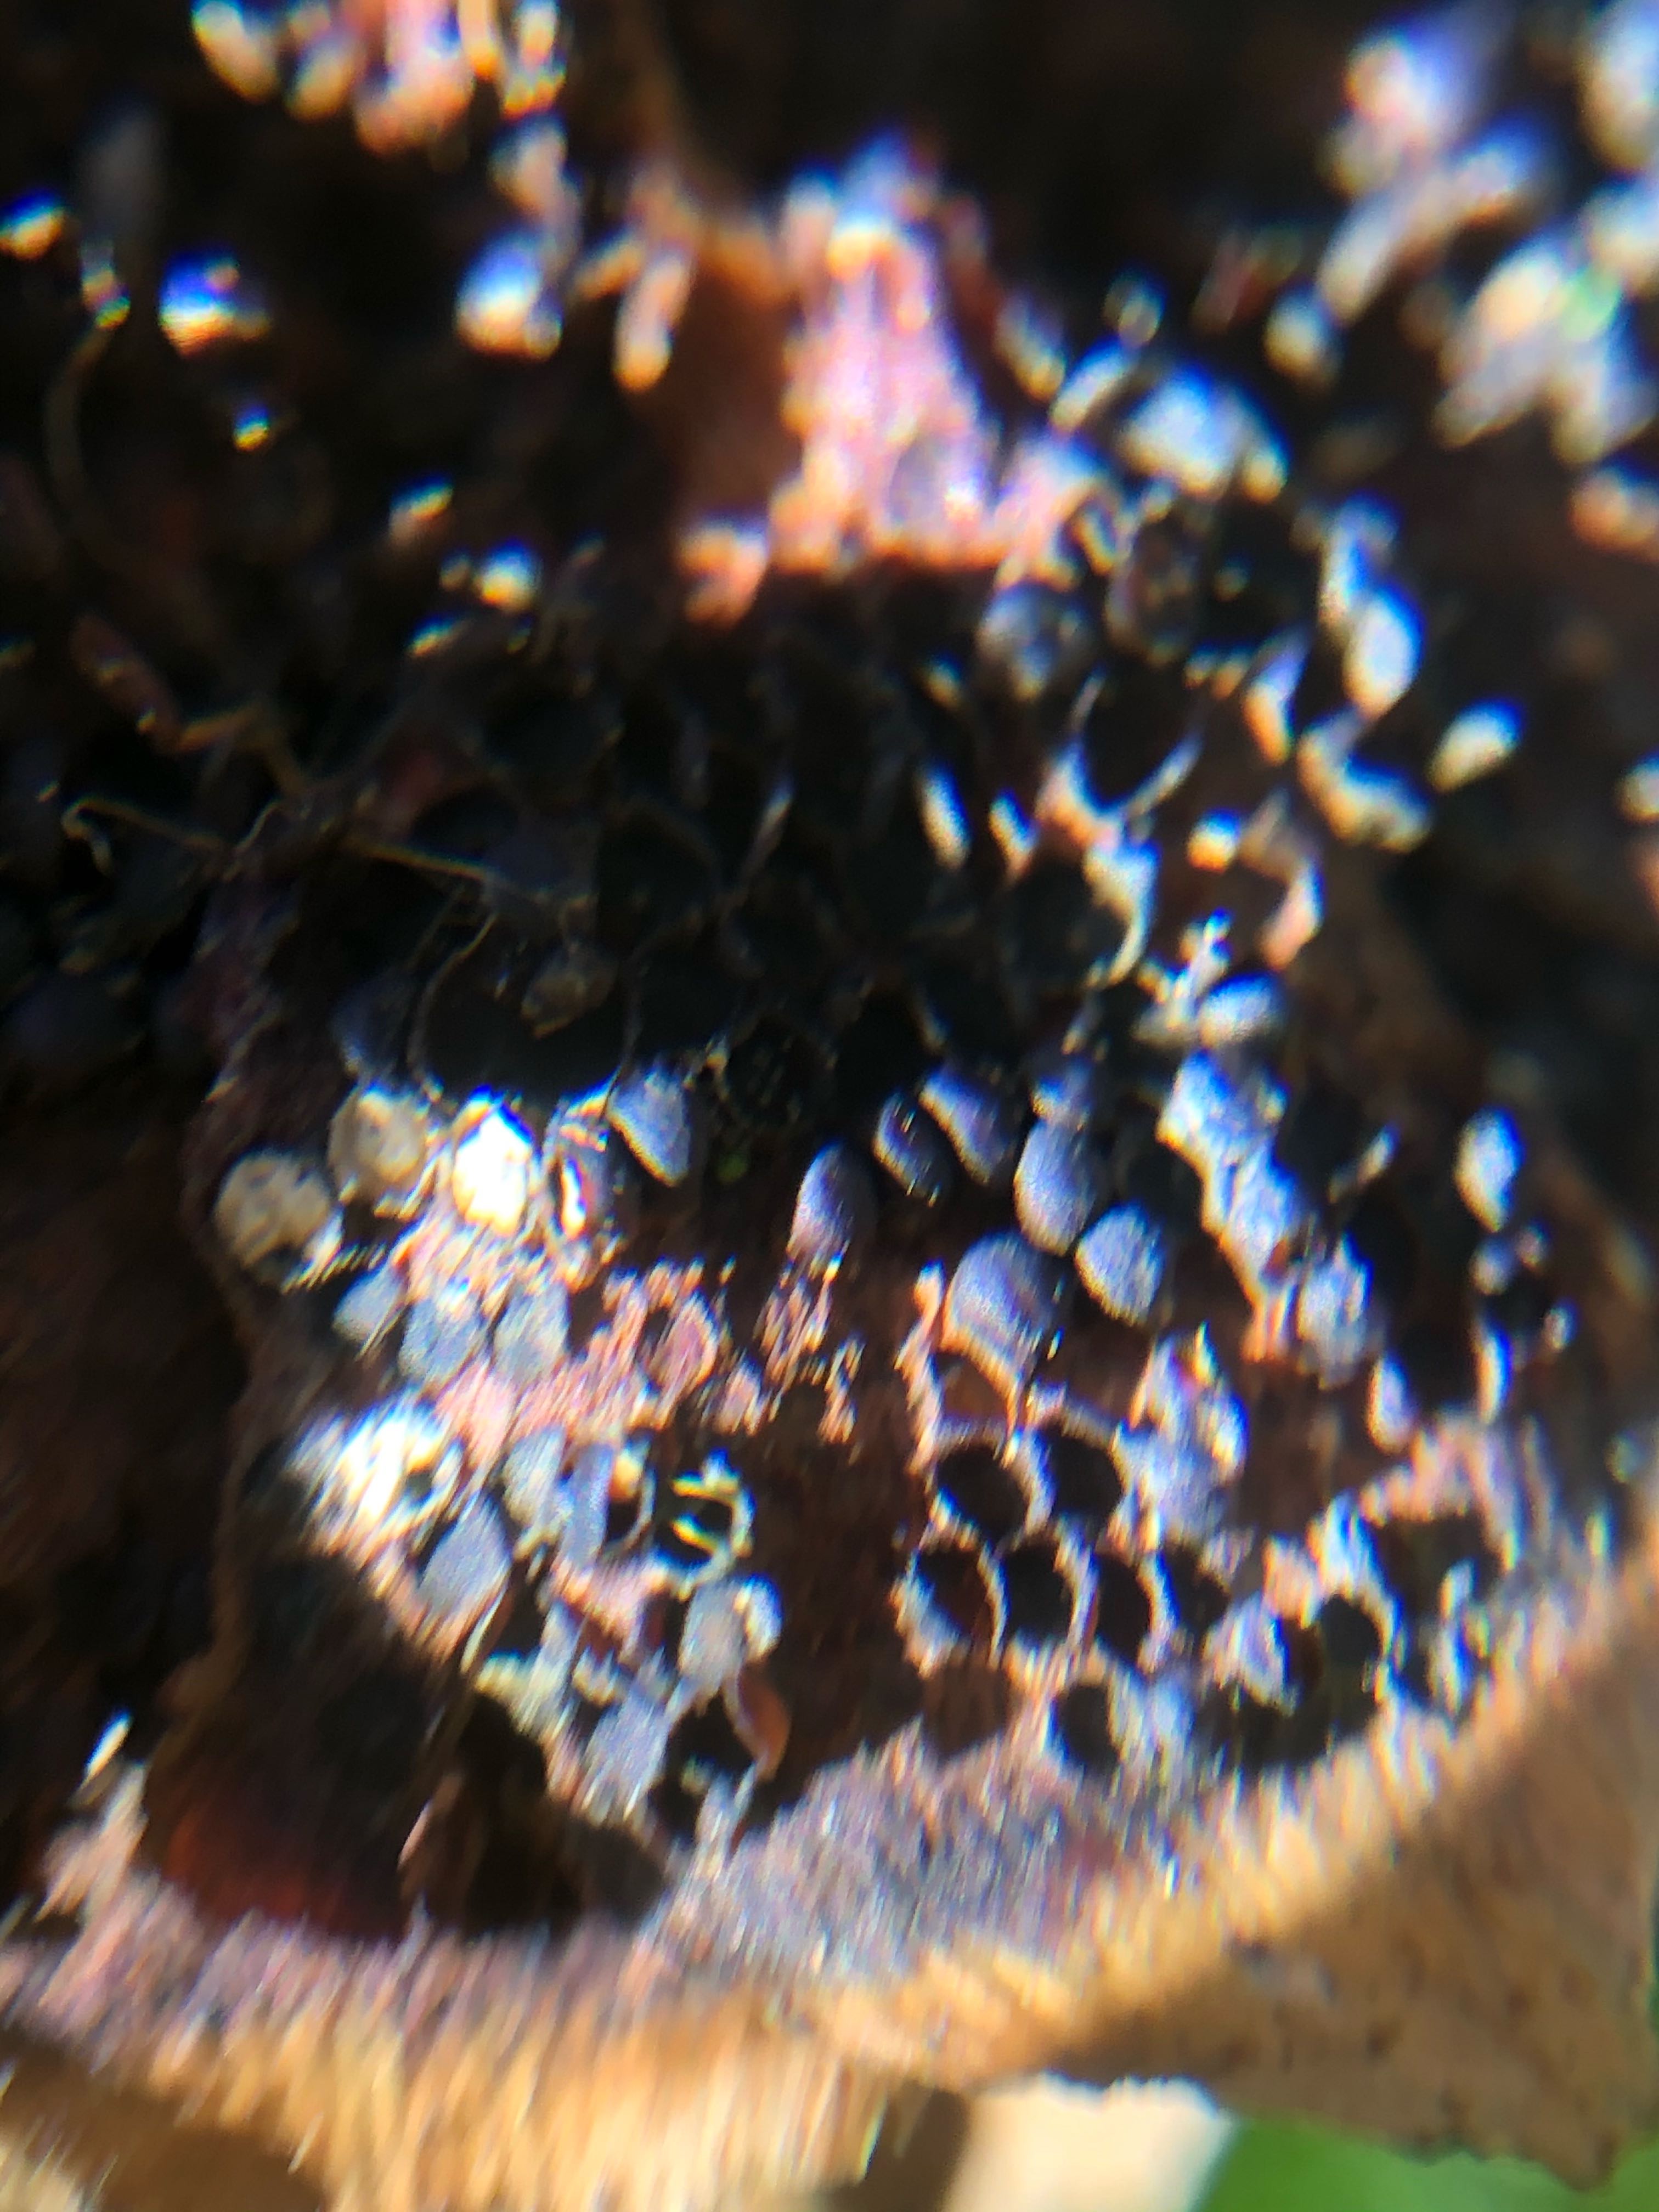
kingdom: Fungi
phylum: Basidiomycota
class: Pucciniomycetes
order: Pucciniales
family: Pucciniastraceae
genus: Thekopsora
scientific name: Thekopsora areolata
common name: grankogle-nålerust
